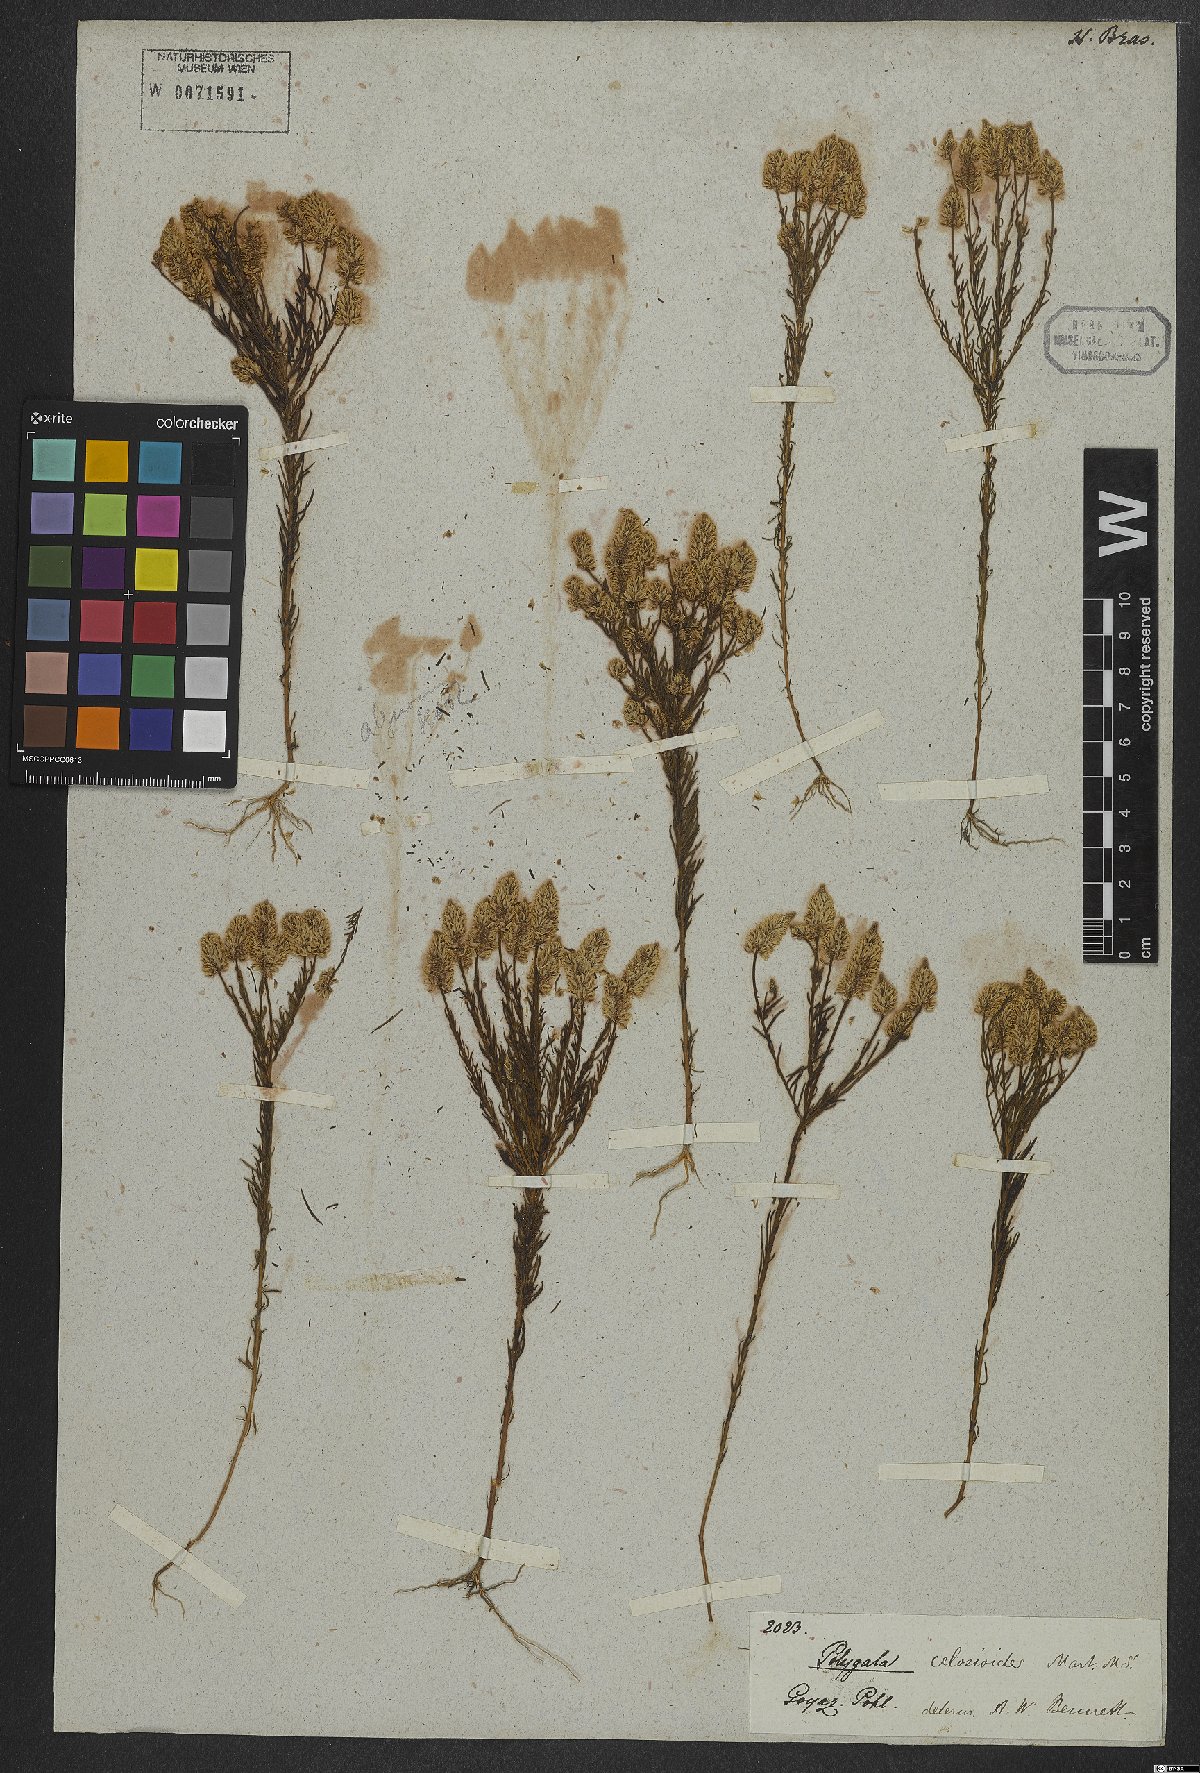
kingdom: Plantae
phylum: Tracheophyta
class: Magnoliopsida
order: Fabales
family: Polygalaceae
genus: Polygala
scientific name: Polygala celosioides
